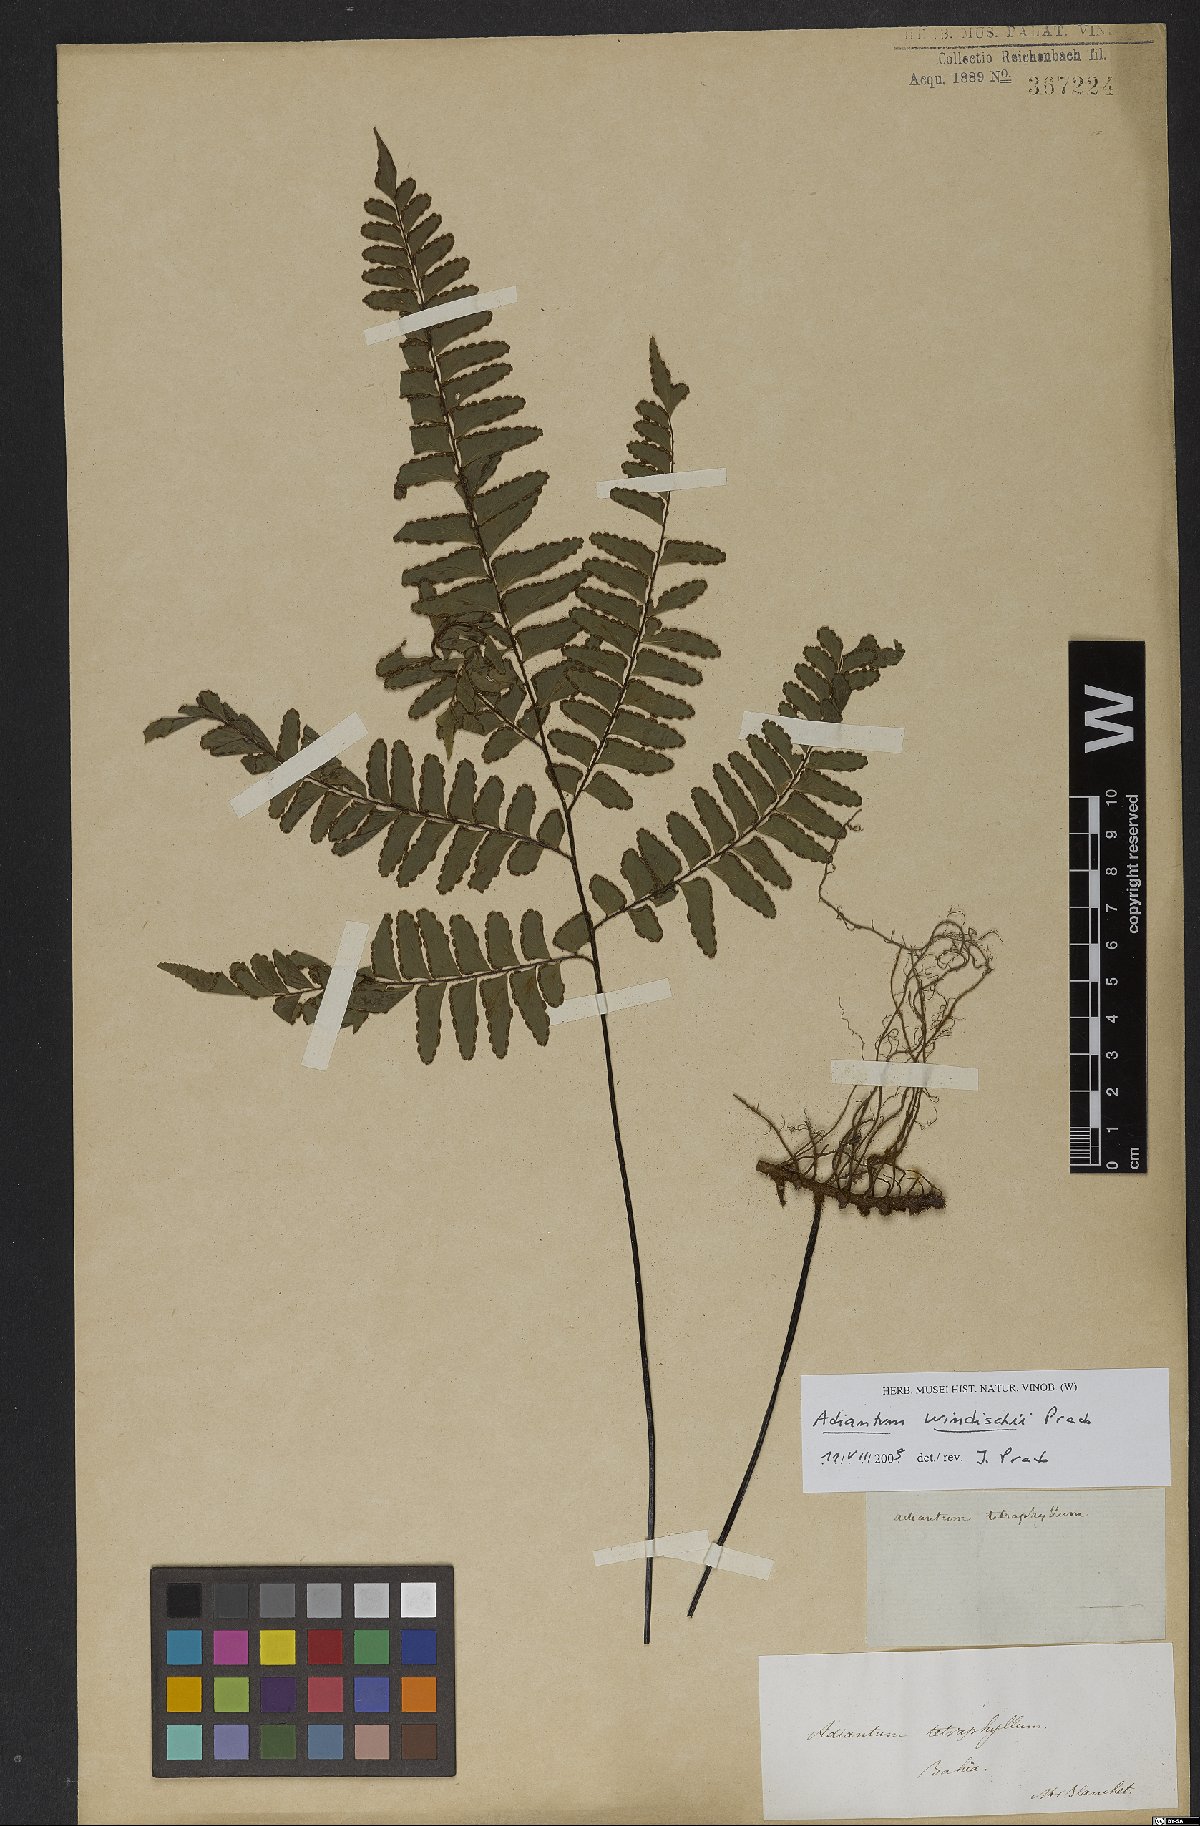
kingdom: Plantae
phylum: Tracheophyta
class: Polypodiopsida
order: Polypodiales
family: Pteridaceae
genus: Adiantum
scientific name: Adiantum windischii
